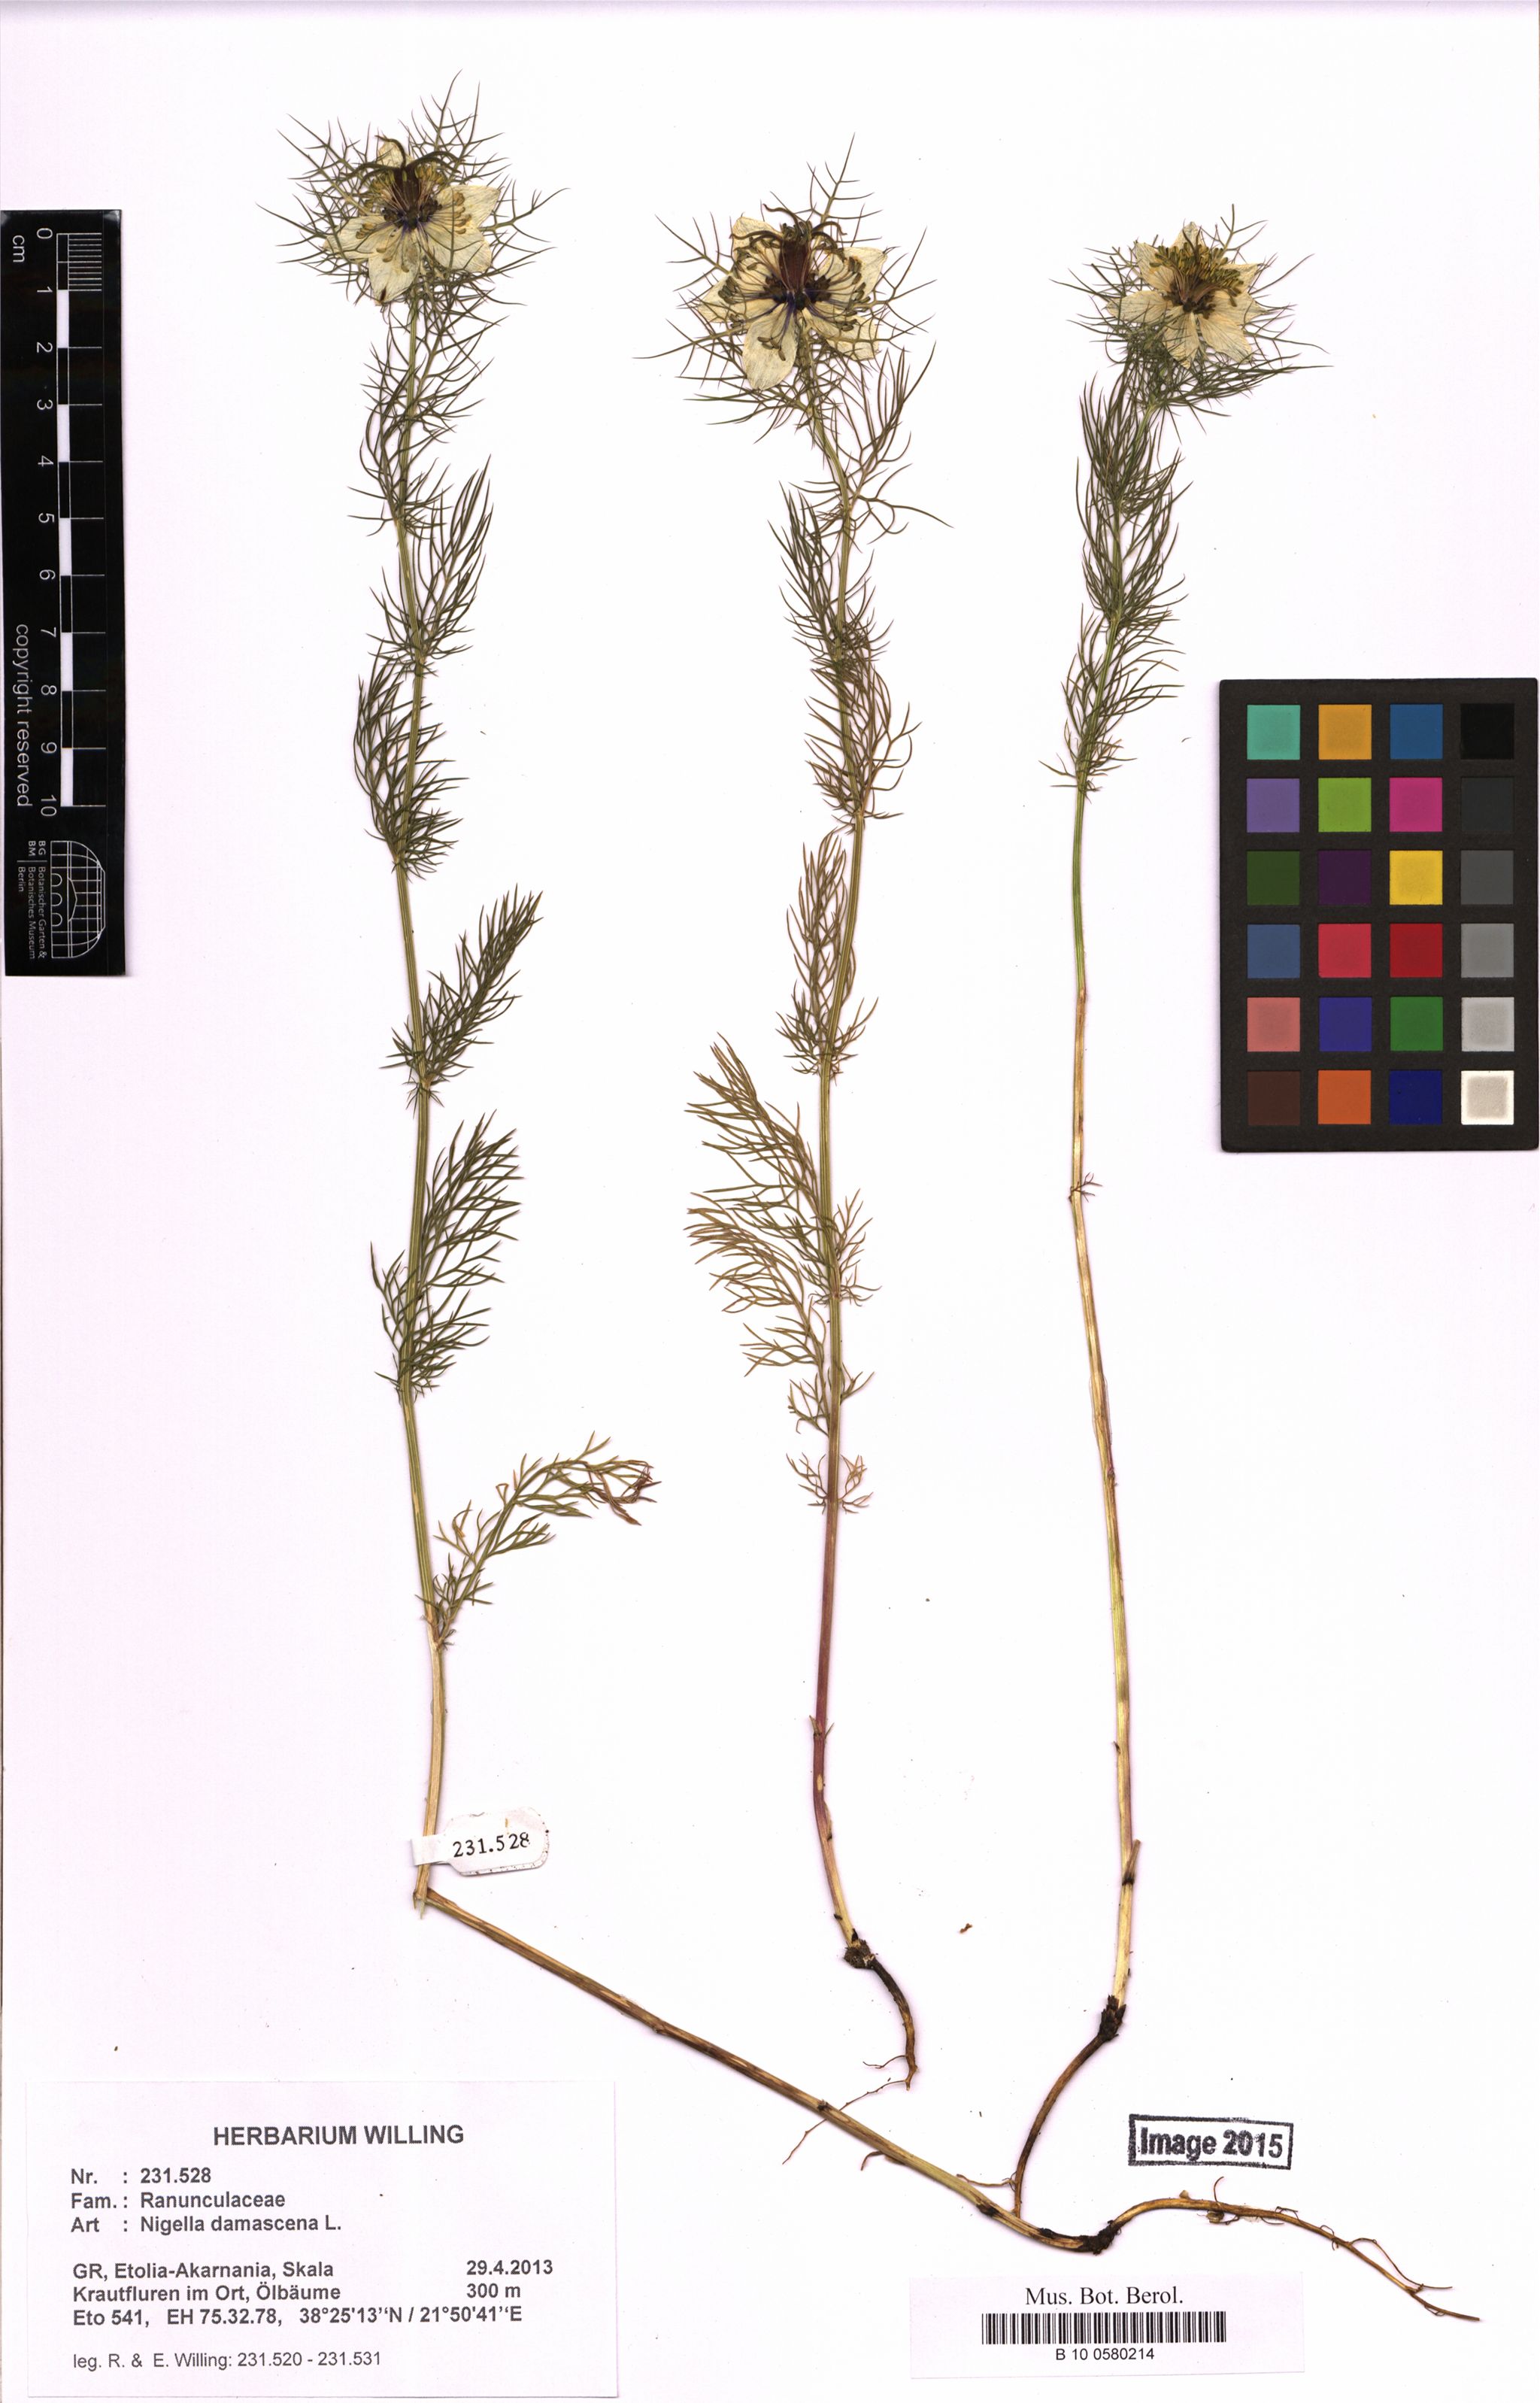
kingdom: Plantae
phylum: Tracheophyta
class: Magnoliopsida
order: Ranunculales
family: Ranunculaceae
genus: Nigella
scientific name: Nigella damascena
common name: Love-in-a-mist
